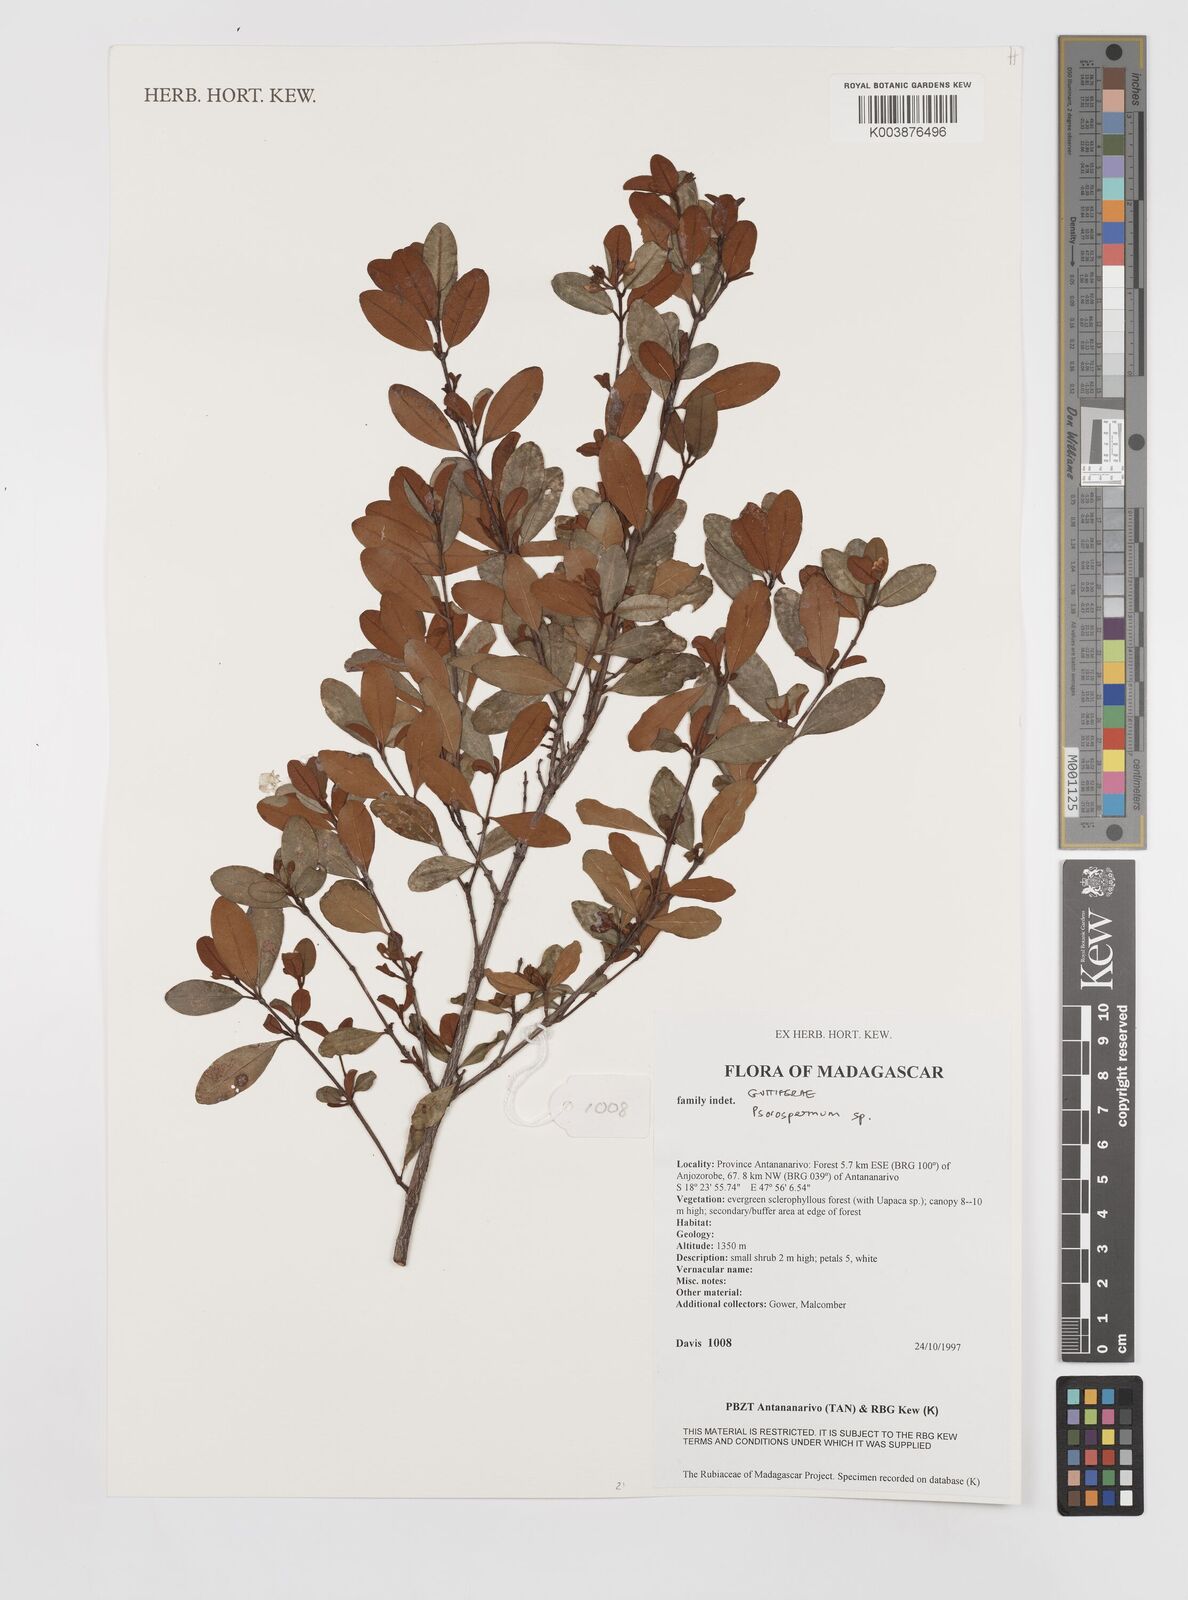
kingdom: Plantae
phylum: Tracheophyta
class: Magnoliopsida
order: Malpighiales
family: Hypericaceae
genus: Psorospermum
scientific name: Psorospermum
